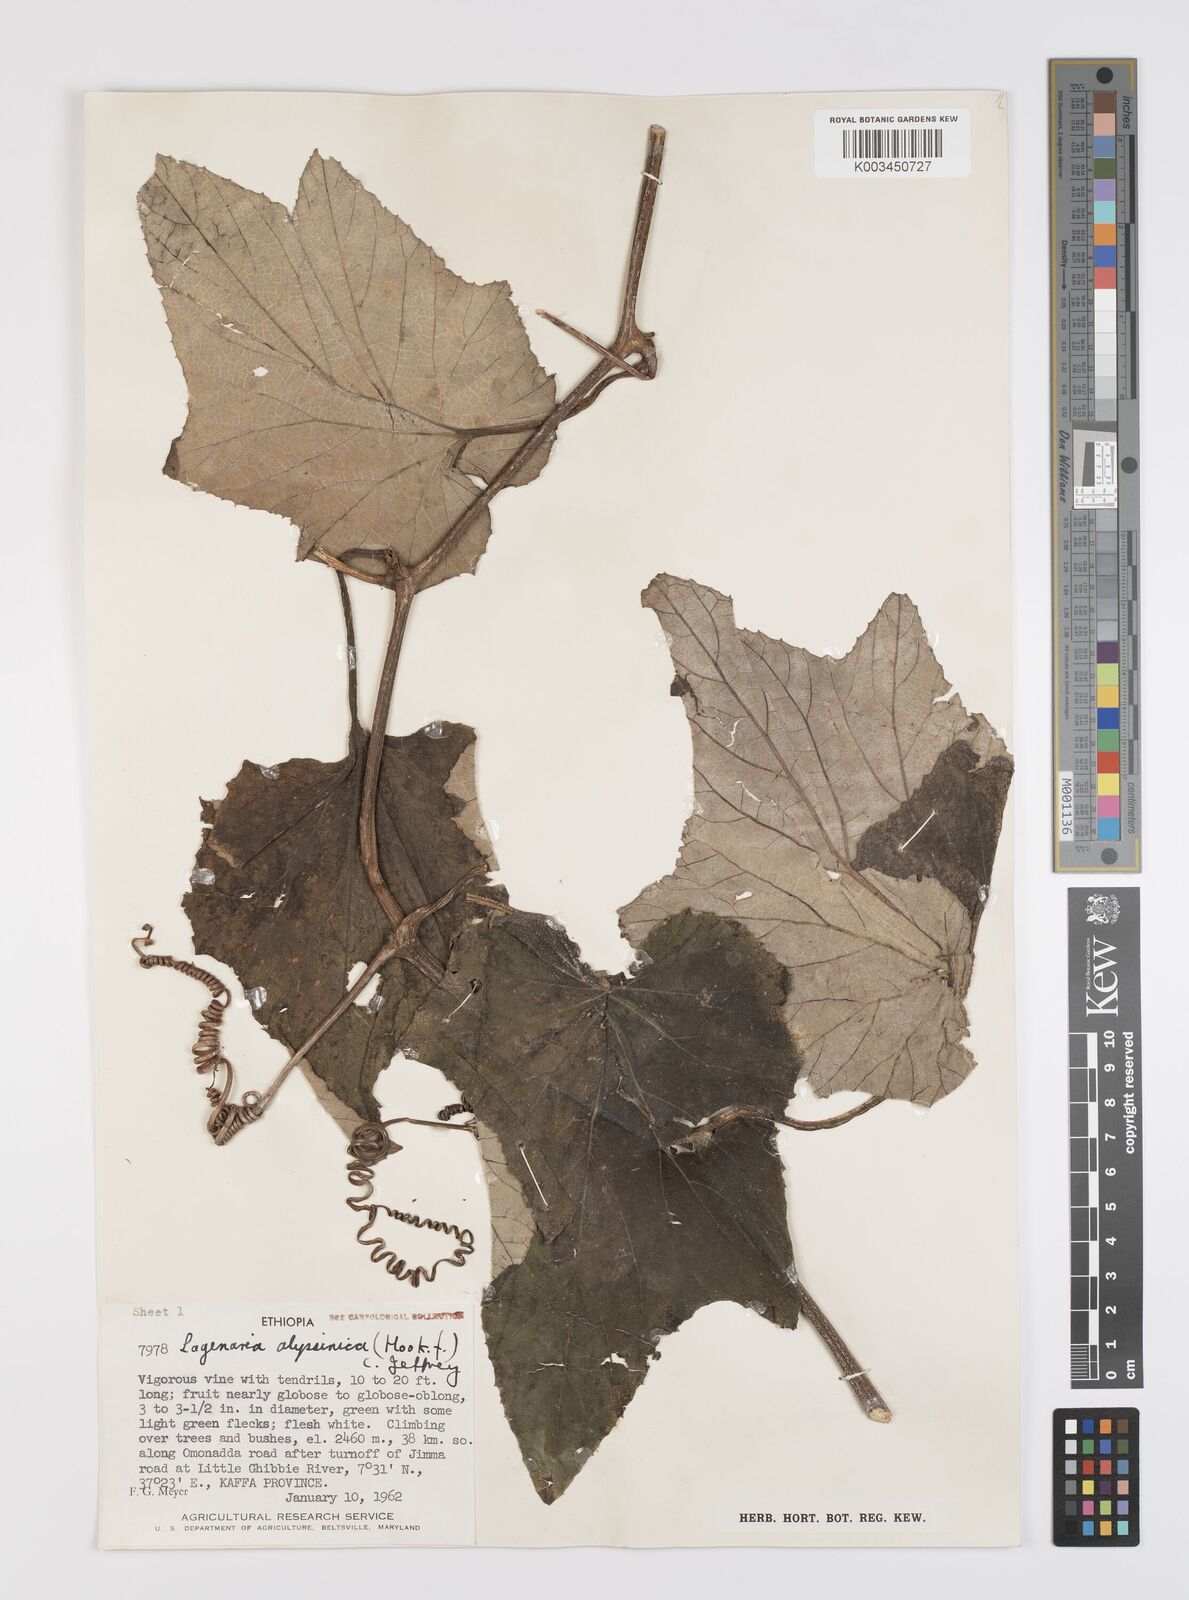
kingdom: Plantae
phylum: Tracheophyta
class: Magnoliopsida
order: Cucurbitales
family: Cucurbitaceae
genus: Lagenaria
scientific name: Lagenaria abyssinica
